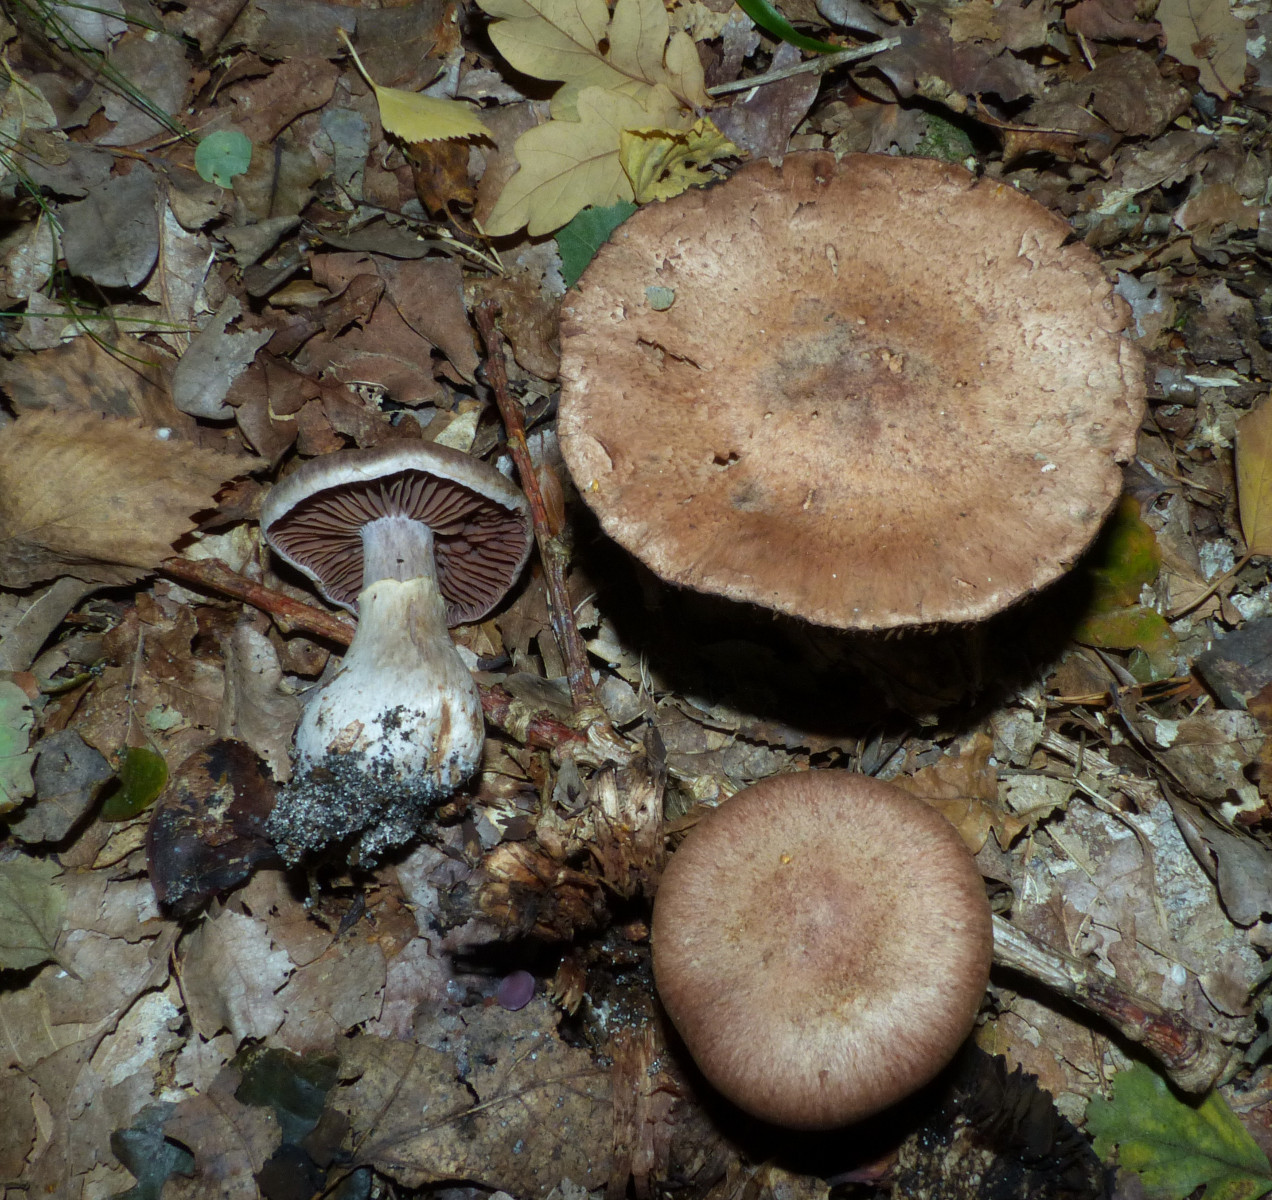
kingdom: Fungi
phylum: Basidiomycota
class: Agaricomycetes
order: Agaricales
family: Cortinariaceae
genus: Cortinarius
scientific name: Cortinarius torvus
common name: champignonagtig slørhat
